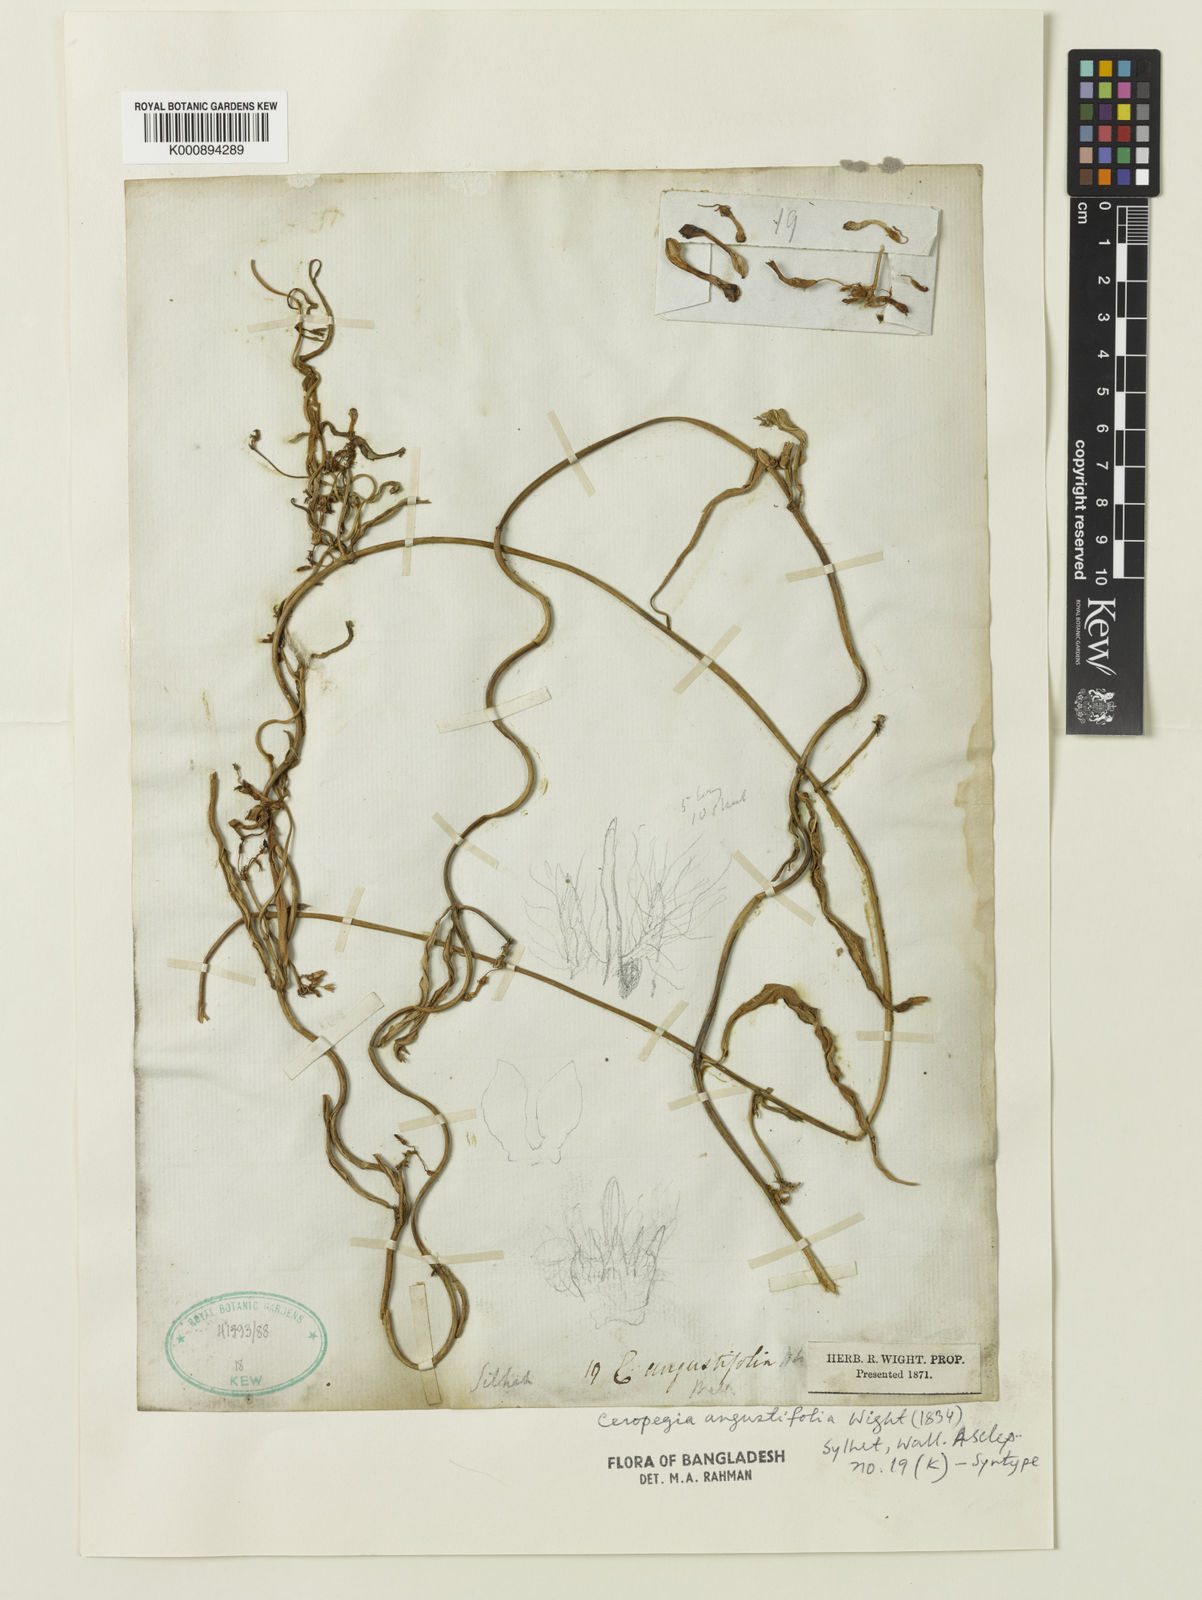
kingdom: Plantae
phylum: Tracheophyta
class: Magnoliopsida
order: Gentianales
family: Apocynaceae
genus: Ceropegia
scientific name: Ceropegia angustifolia
